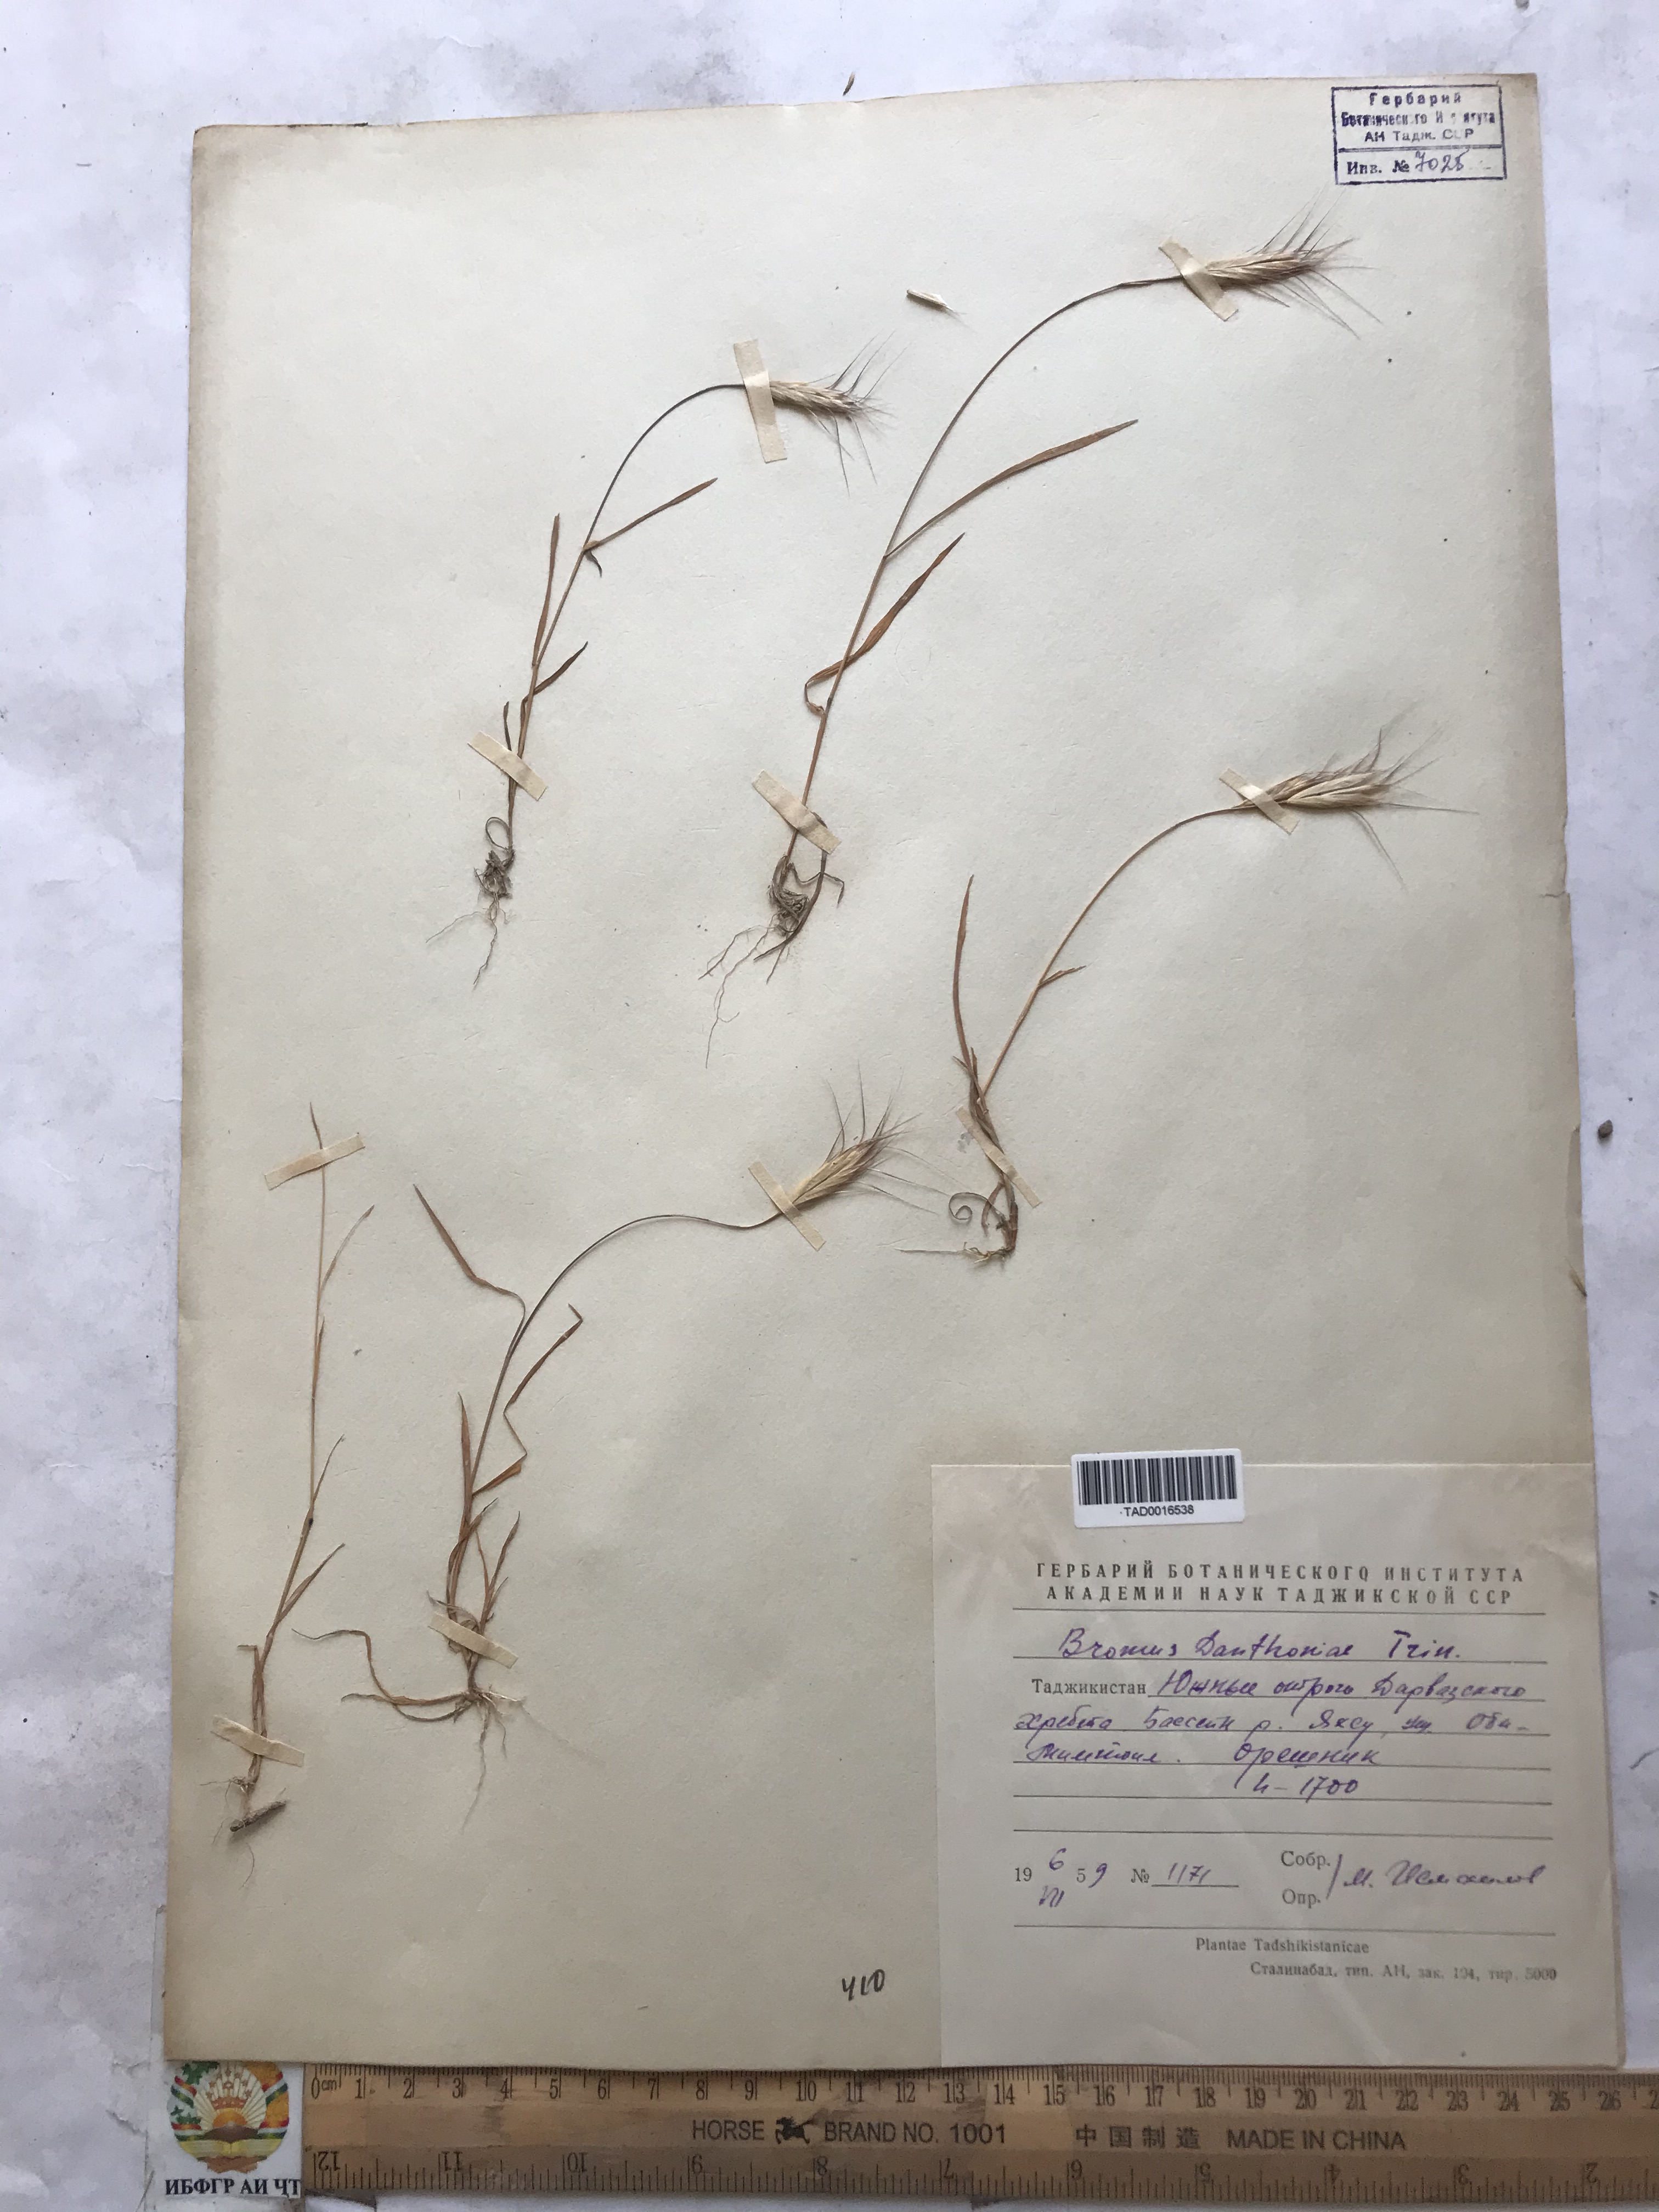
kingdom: Plantae
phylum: Tracheophyta
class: Liliopsida
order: Poales
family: Poaceae
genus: Bromus
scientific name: Bromus danthoniae
